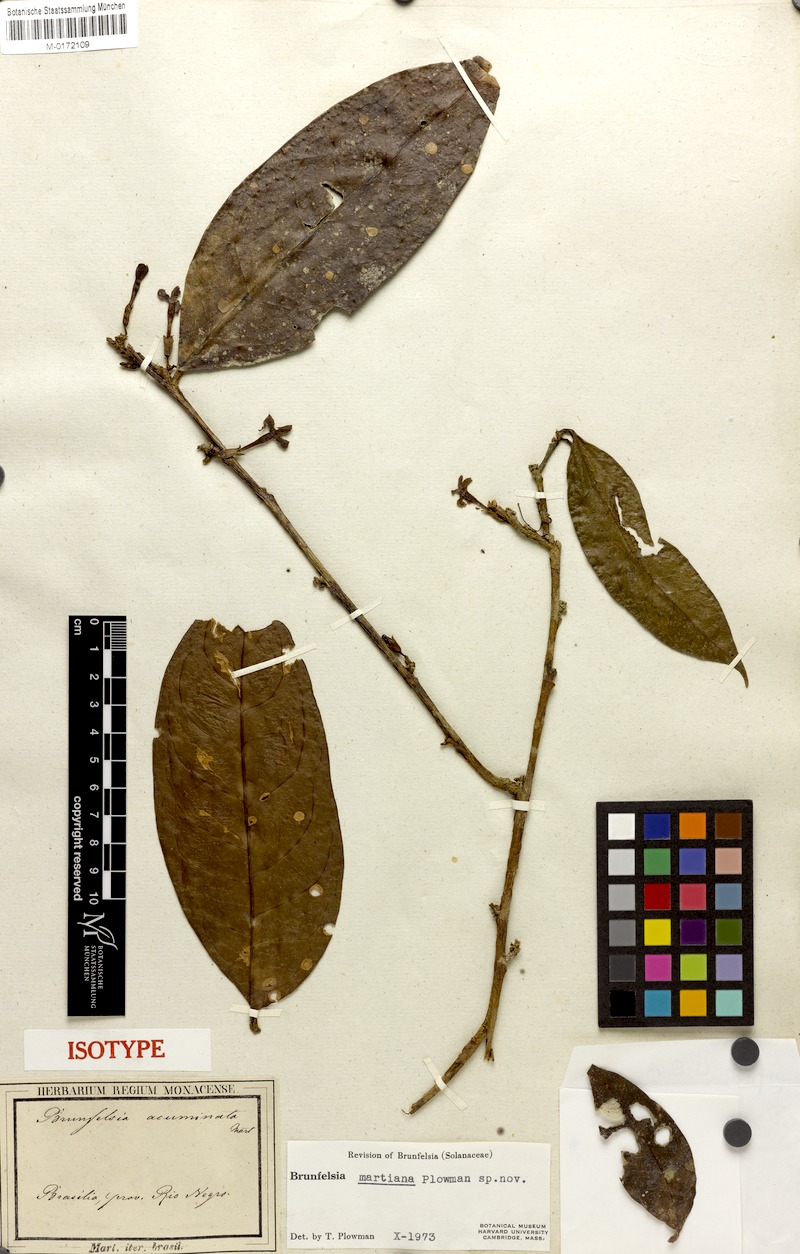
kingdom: Plantae
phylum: Tracheophyta
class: Magnoliopsida
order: Solanales
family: Solanaceae
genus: Brunfelsia
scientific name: Brunfelsia martiana
